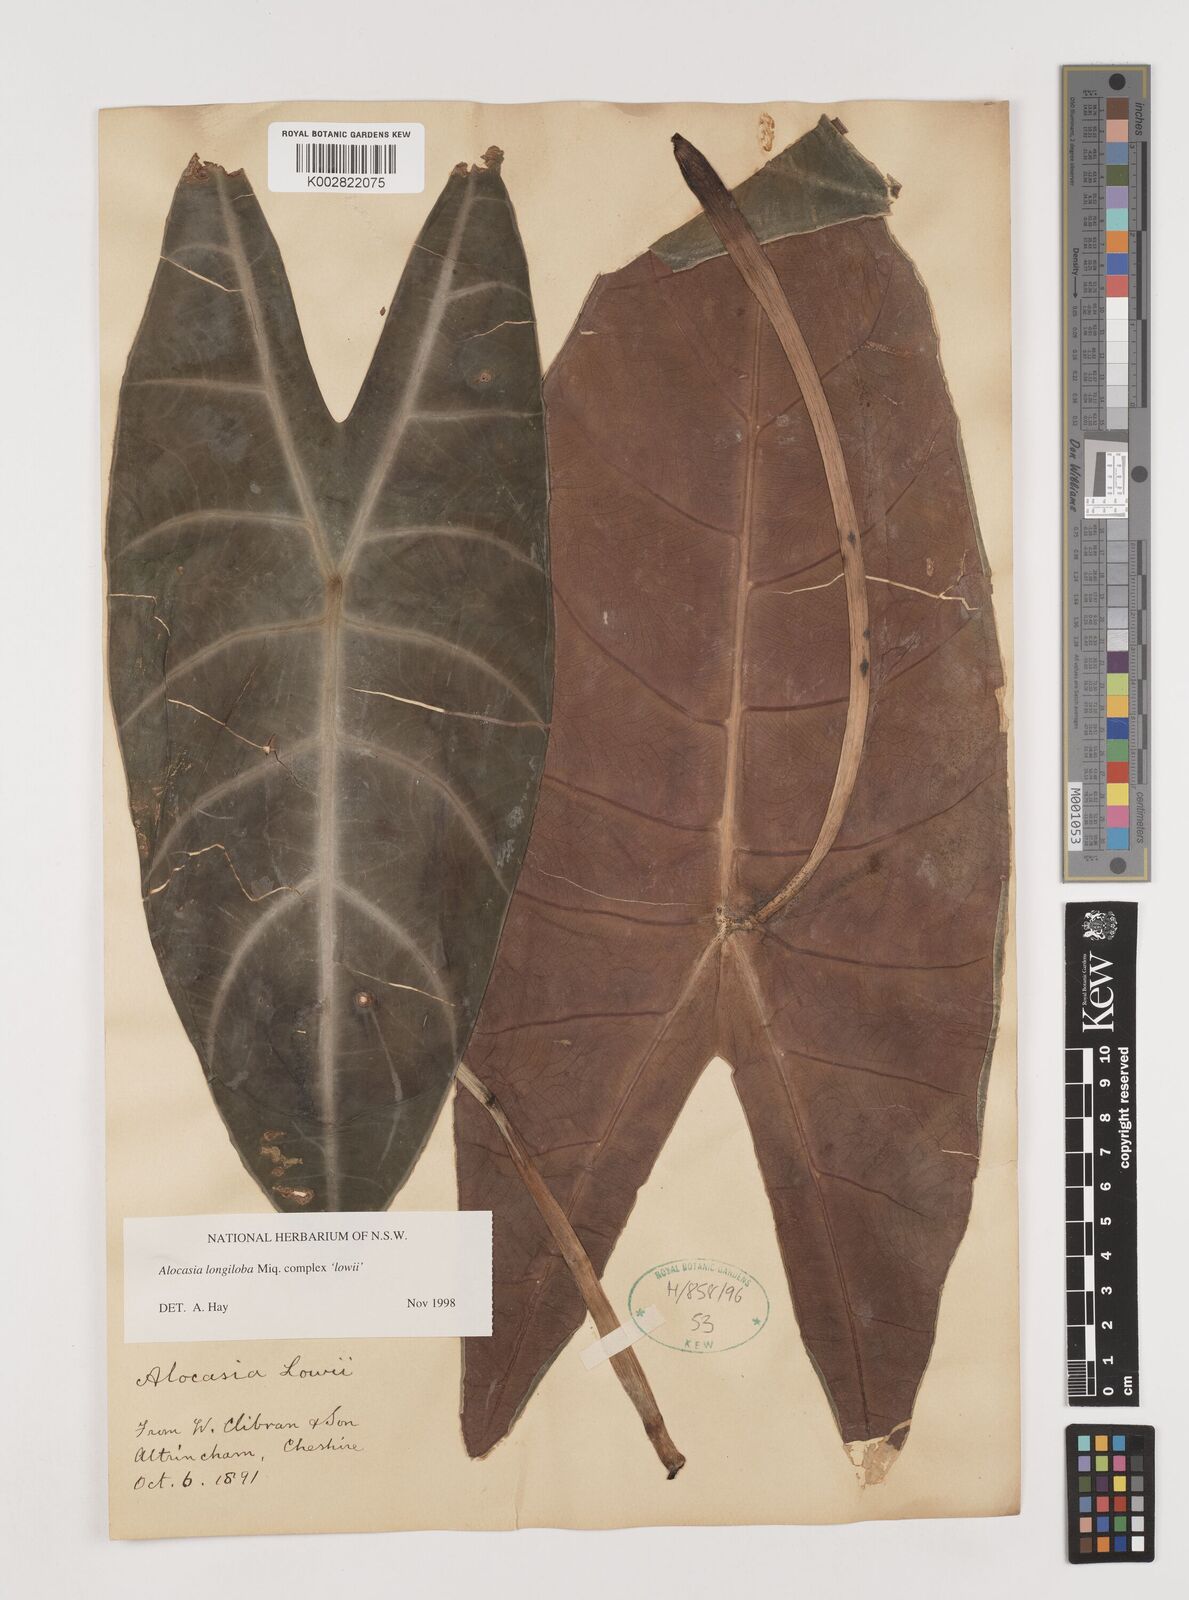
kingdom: Plantae
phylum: Tracheophyta
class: Liliopsida
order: Alismatales
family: Araceae
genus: Alocasia
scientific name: Alocasia longiloba
